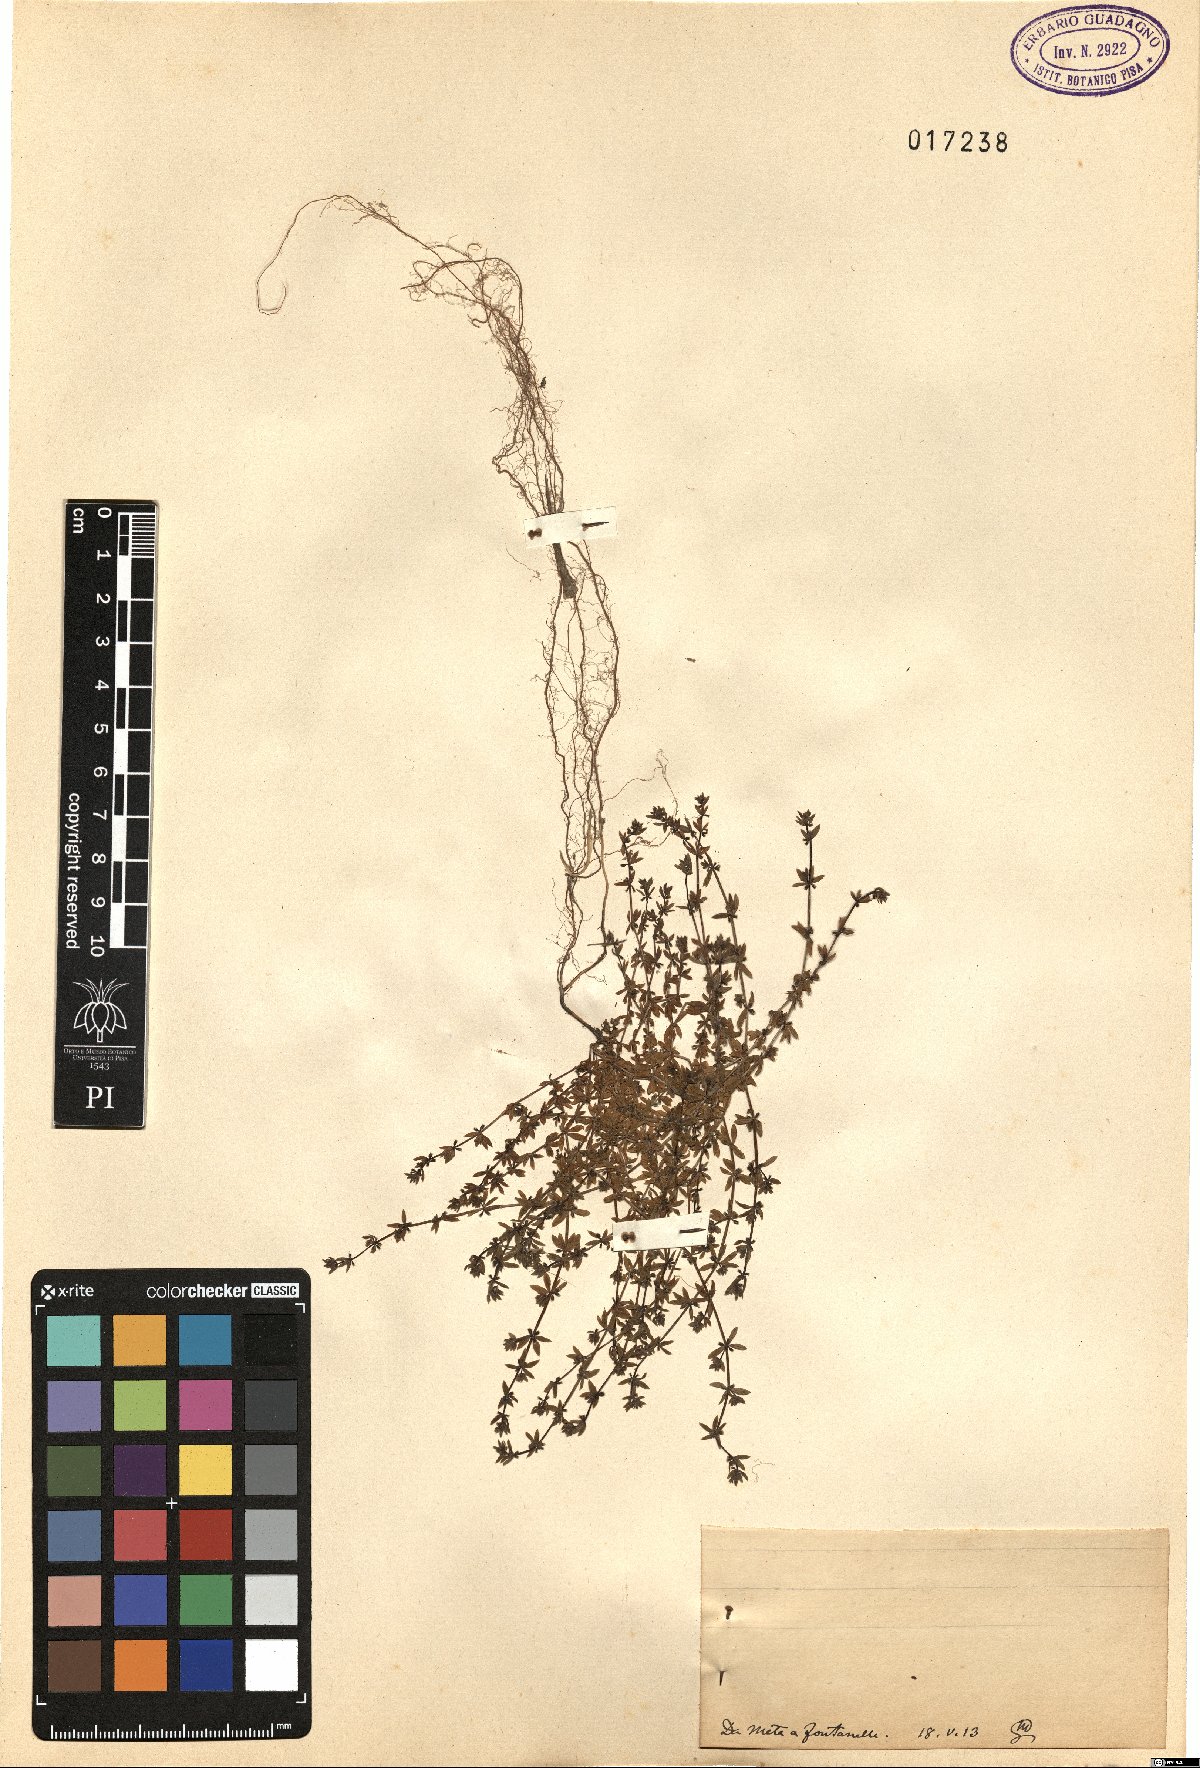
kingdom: Plantae
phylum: Tracheophyta
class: Magnoliopsida
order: Gentianales
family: Rubiaceae
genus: Galium
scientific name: Galium
